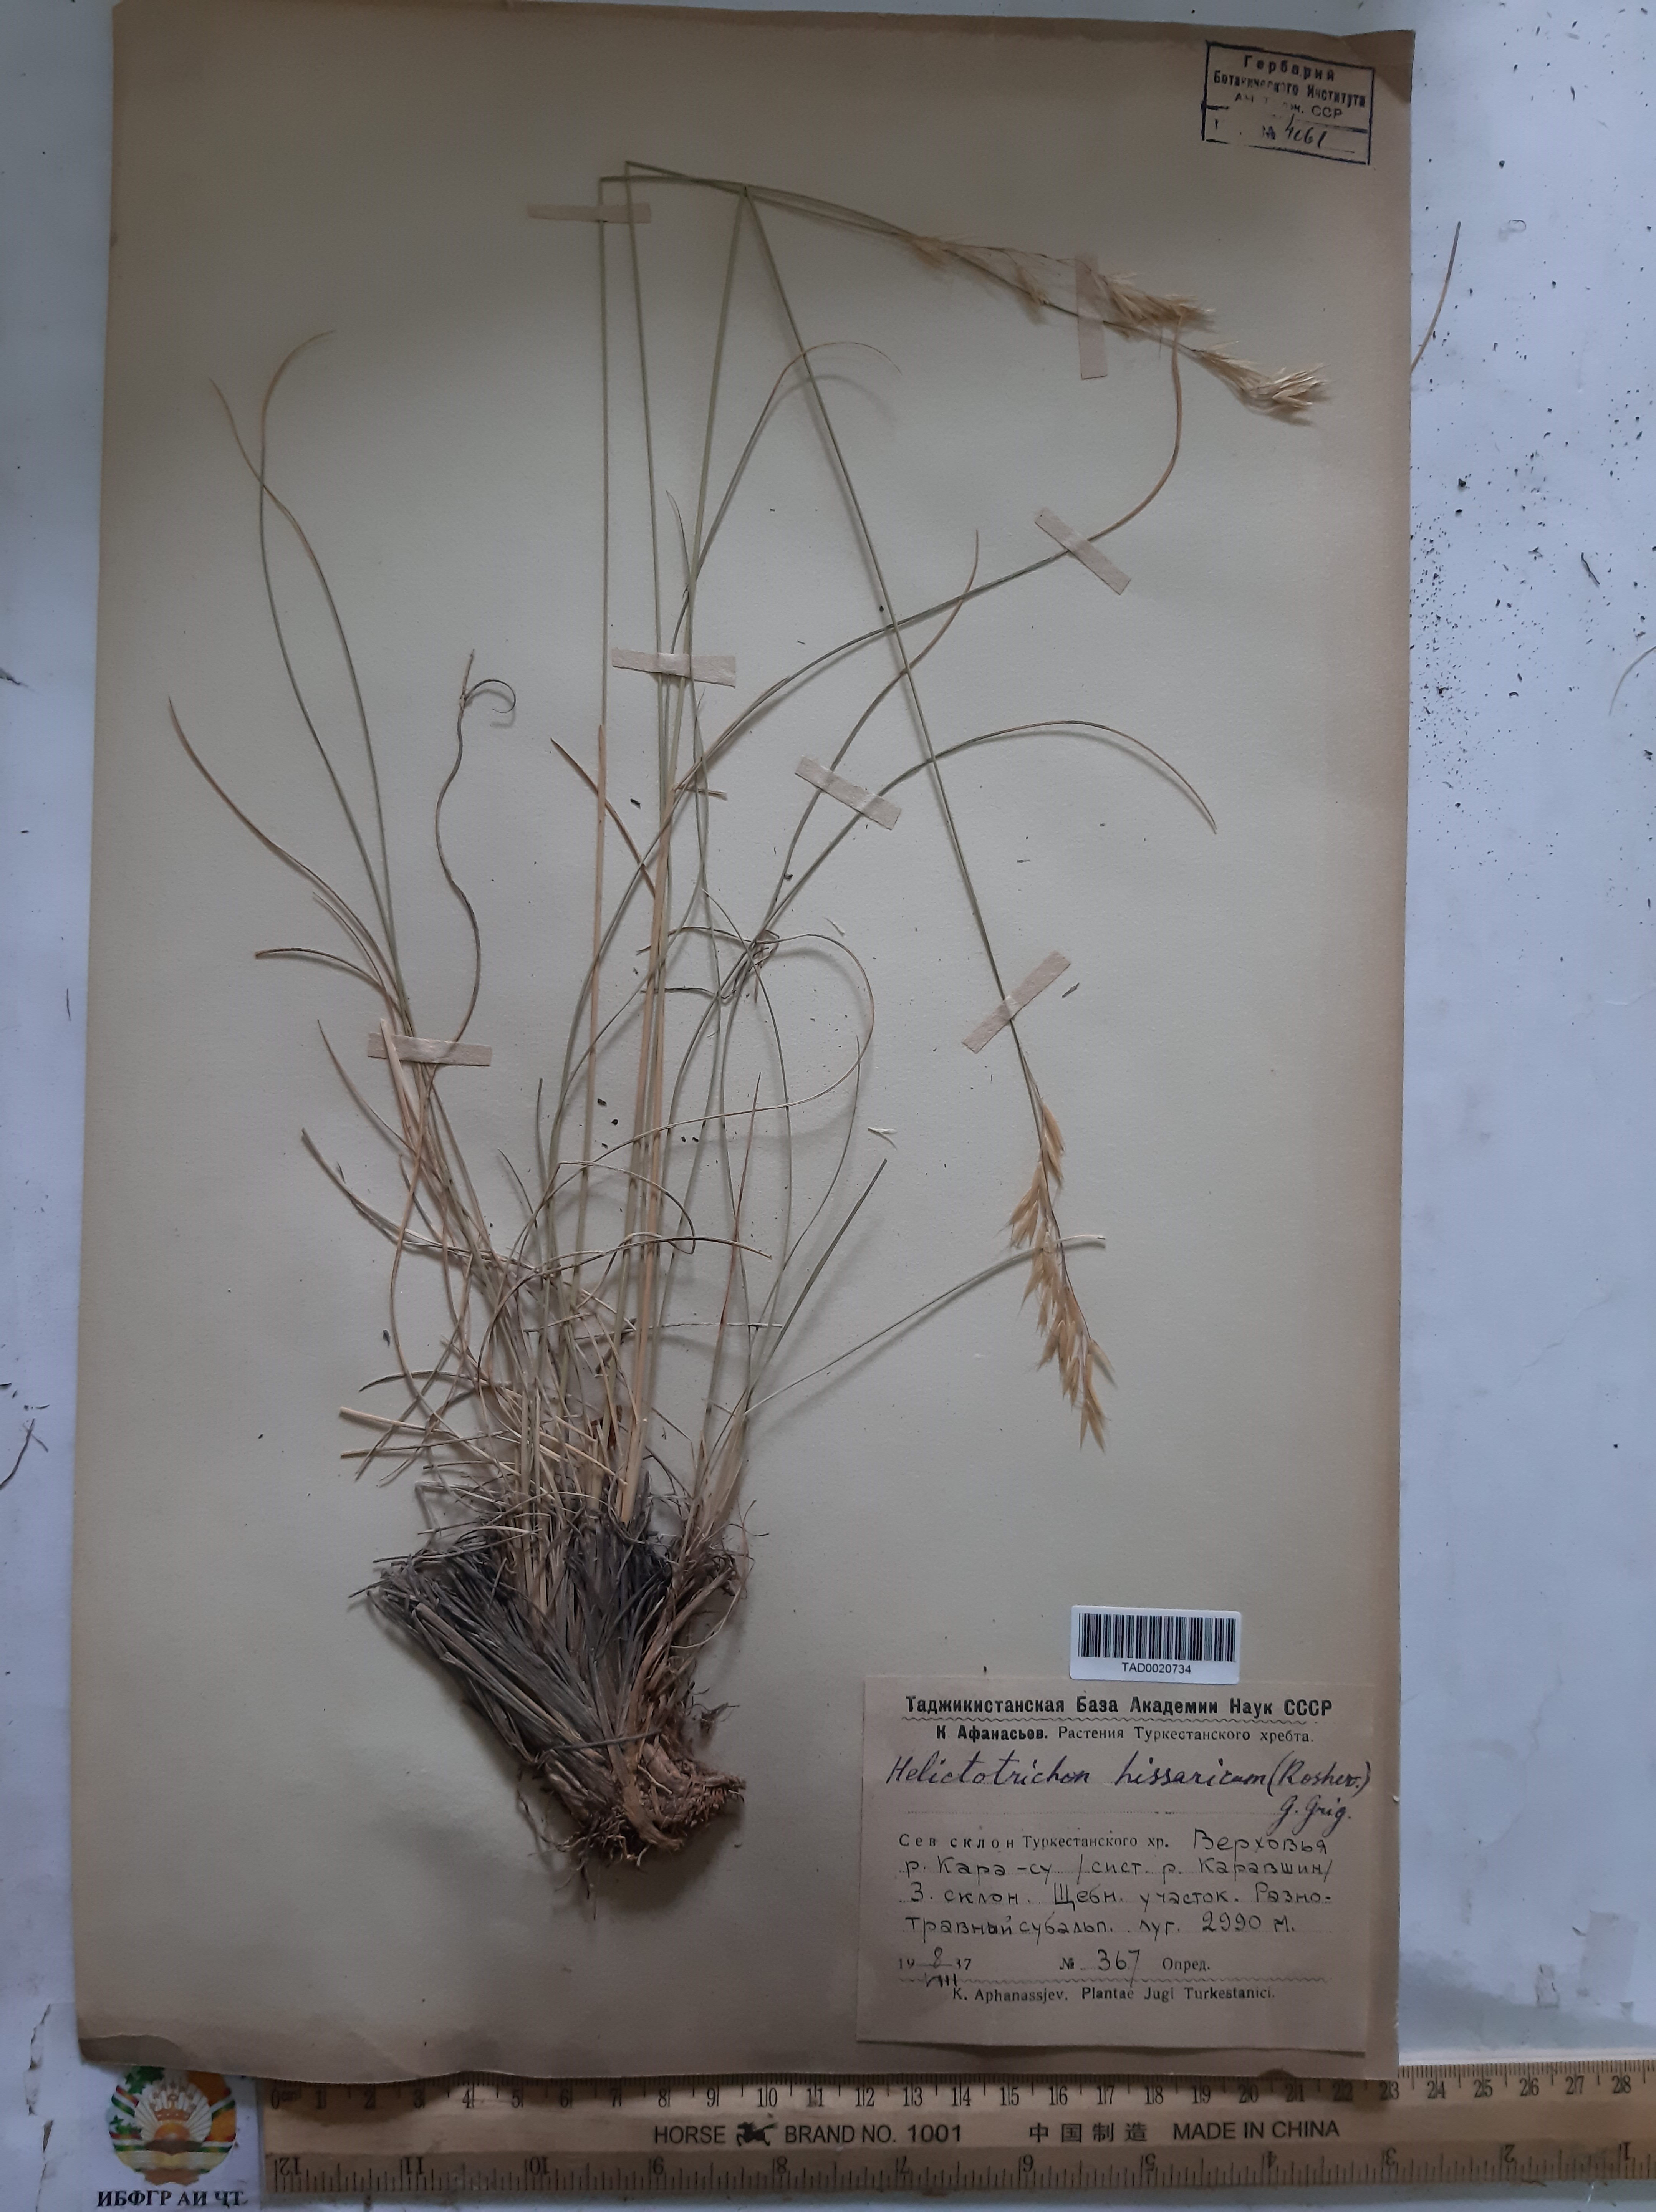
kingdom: Plantae
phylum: Tracheophyta
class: Liliopsida
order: Poales
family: Poaceae
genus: Helictotrichon
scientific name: Helictotrichon hissaricum
